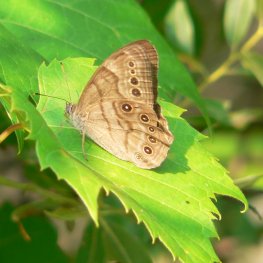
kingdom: Animalia
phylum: Arthropoda
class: Insecta
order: Lepidoptera
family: Nymphalidae
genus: Lethe
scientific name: Lethe anthedon
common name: Northern Pearly-Eye
